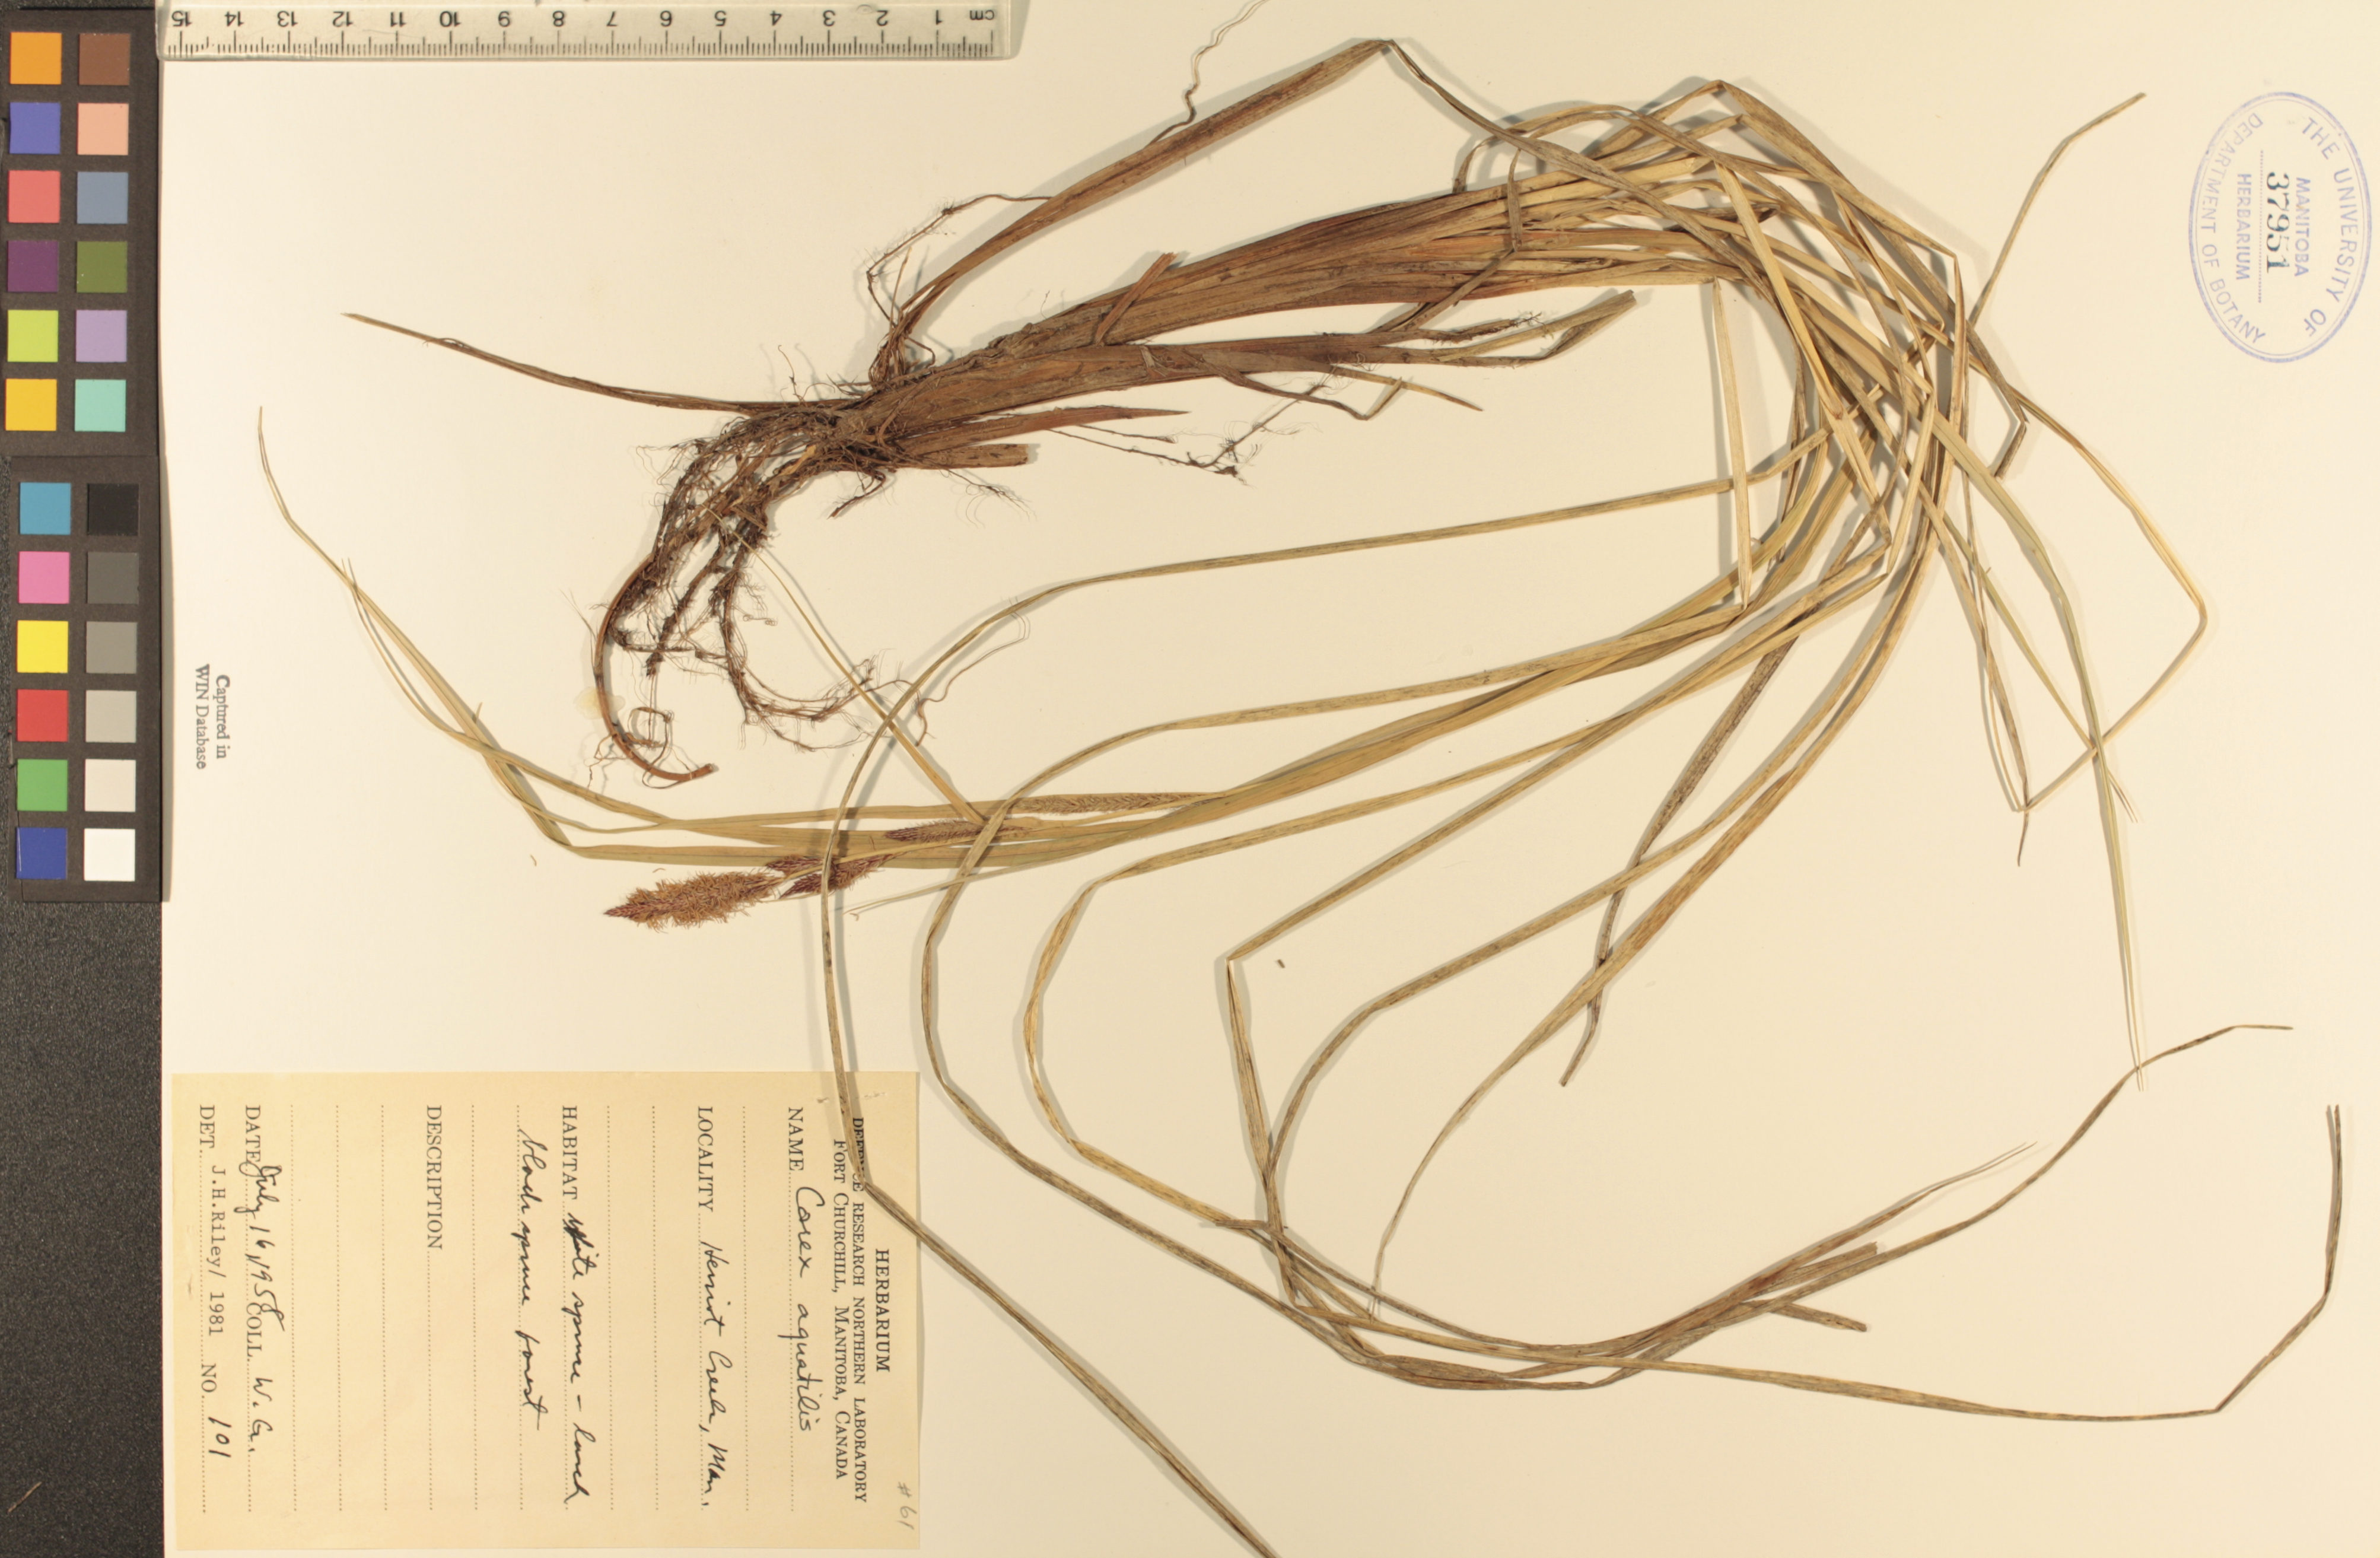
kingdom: Plantae
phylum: Tracheophyta
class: Liliopsida
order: Poales
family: Cyperaceae
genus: Carex
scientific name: Carex aquatilis
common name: Water sedge
